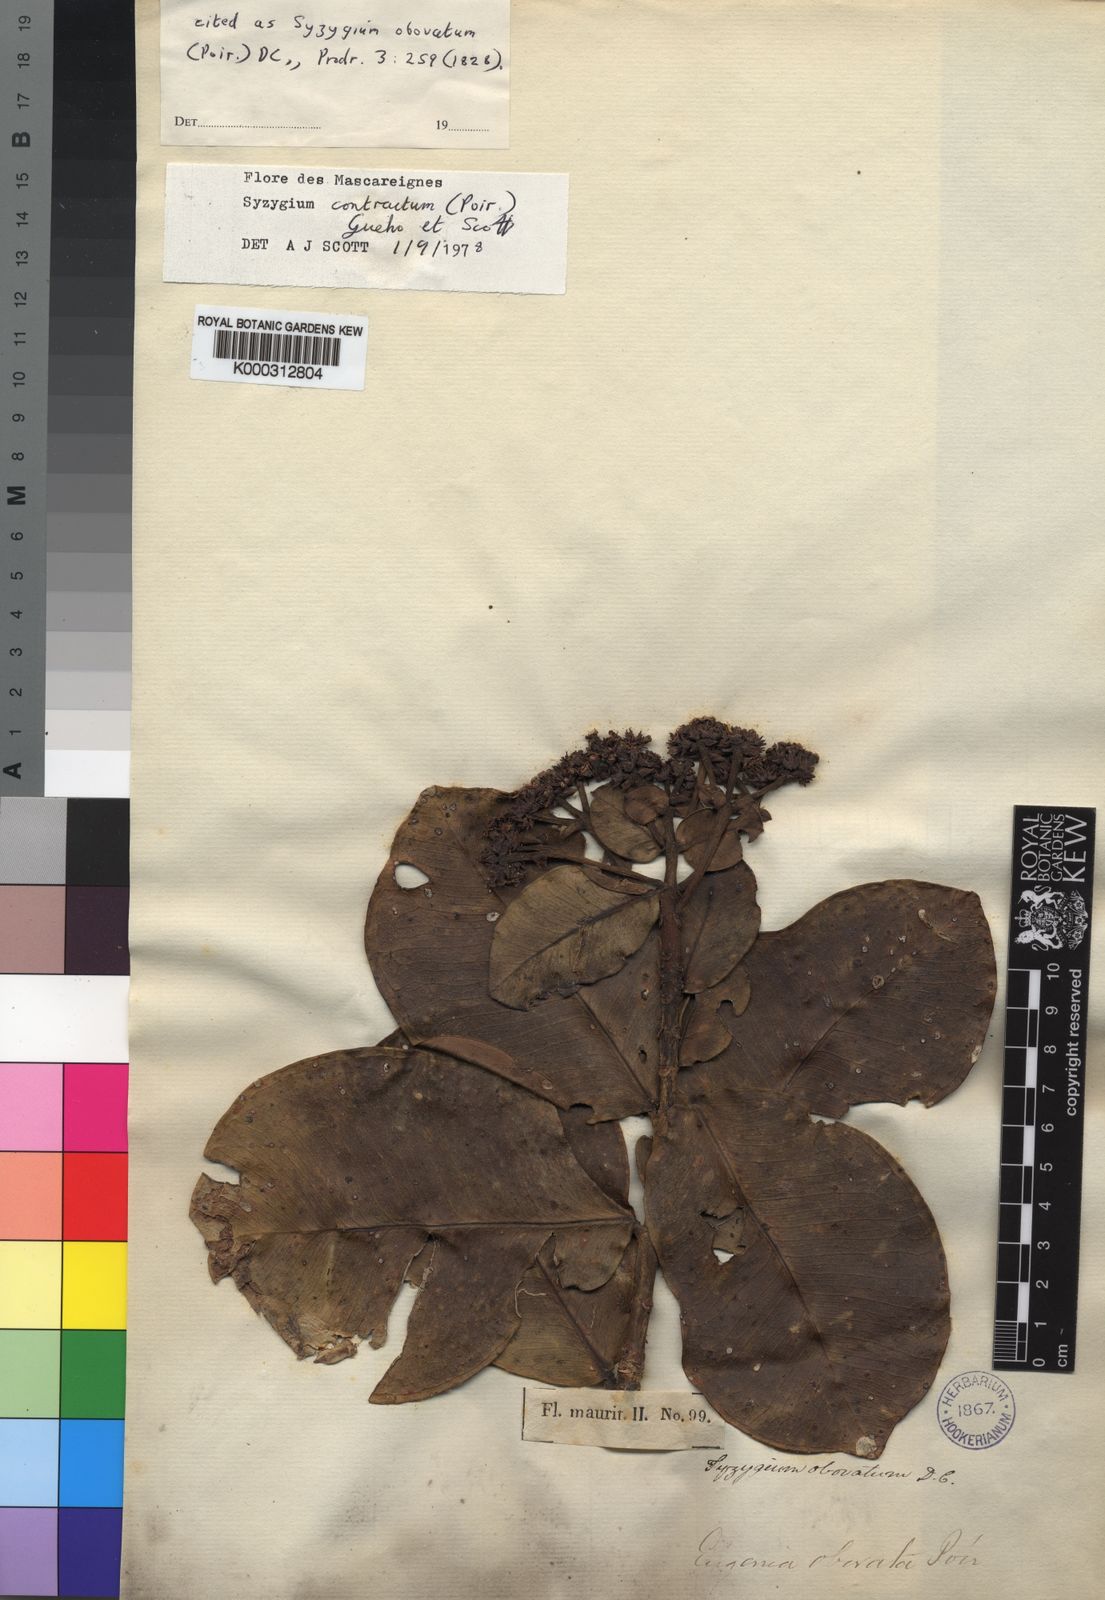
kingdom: Plantae
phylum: Tracheophyta
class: Magnoliopsida
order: Myrtales
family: Myrtaceae
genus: Syzygium
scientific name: Syzygium contractum
